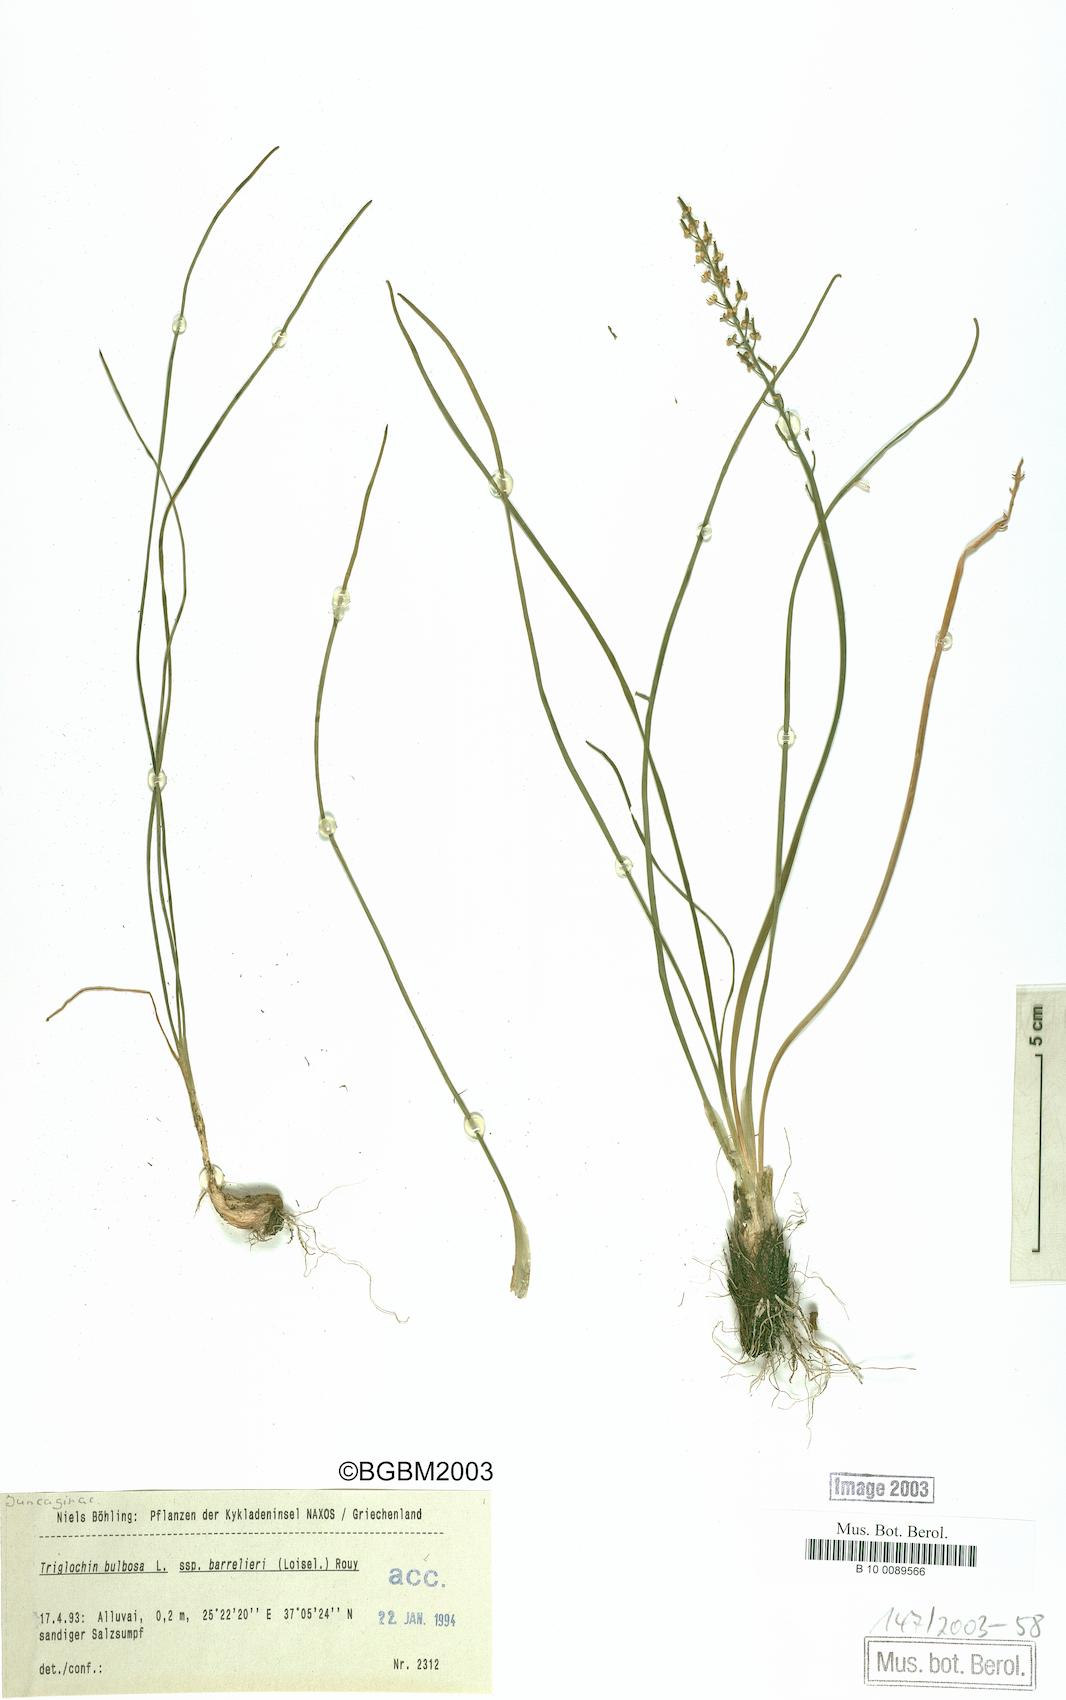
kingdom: Plantae
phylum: Tracheophyta
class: Liliopsida
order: Alismatales
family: Juncaginaceae
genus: Triglochin
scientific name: Triglochin barrelieri
